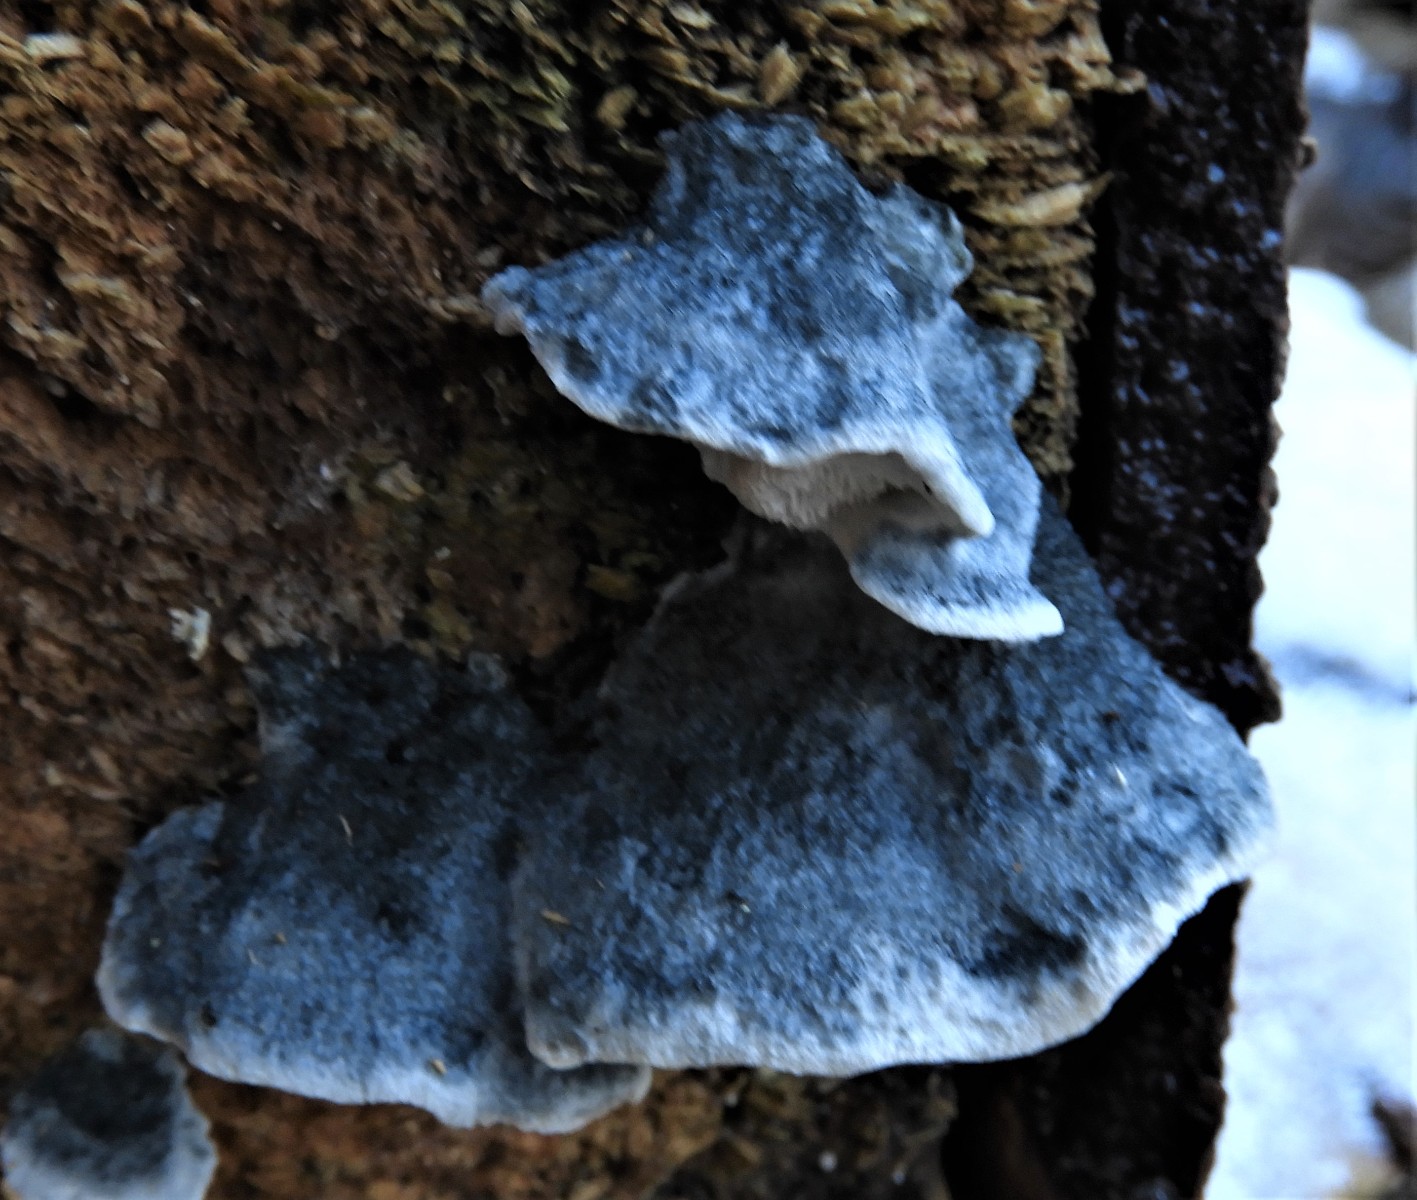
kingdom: Fungi
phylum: Basidiomycota
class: Agaricomycetes
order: Polyporales
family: Polyporaceae
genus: Cyanosporus
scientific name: Cyanosporus caesius
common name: blålig kødporesvamp
